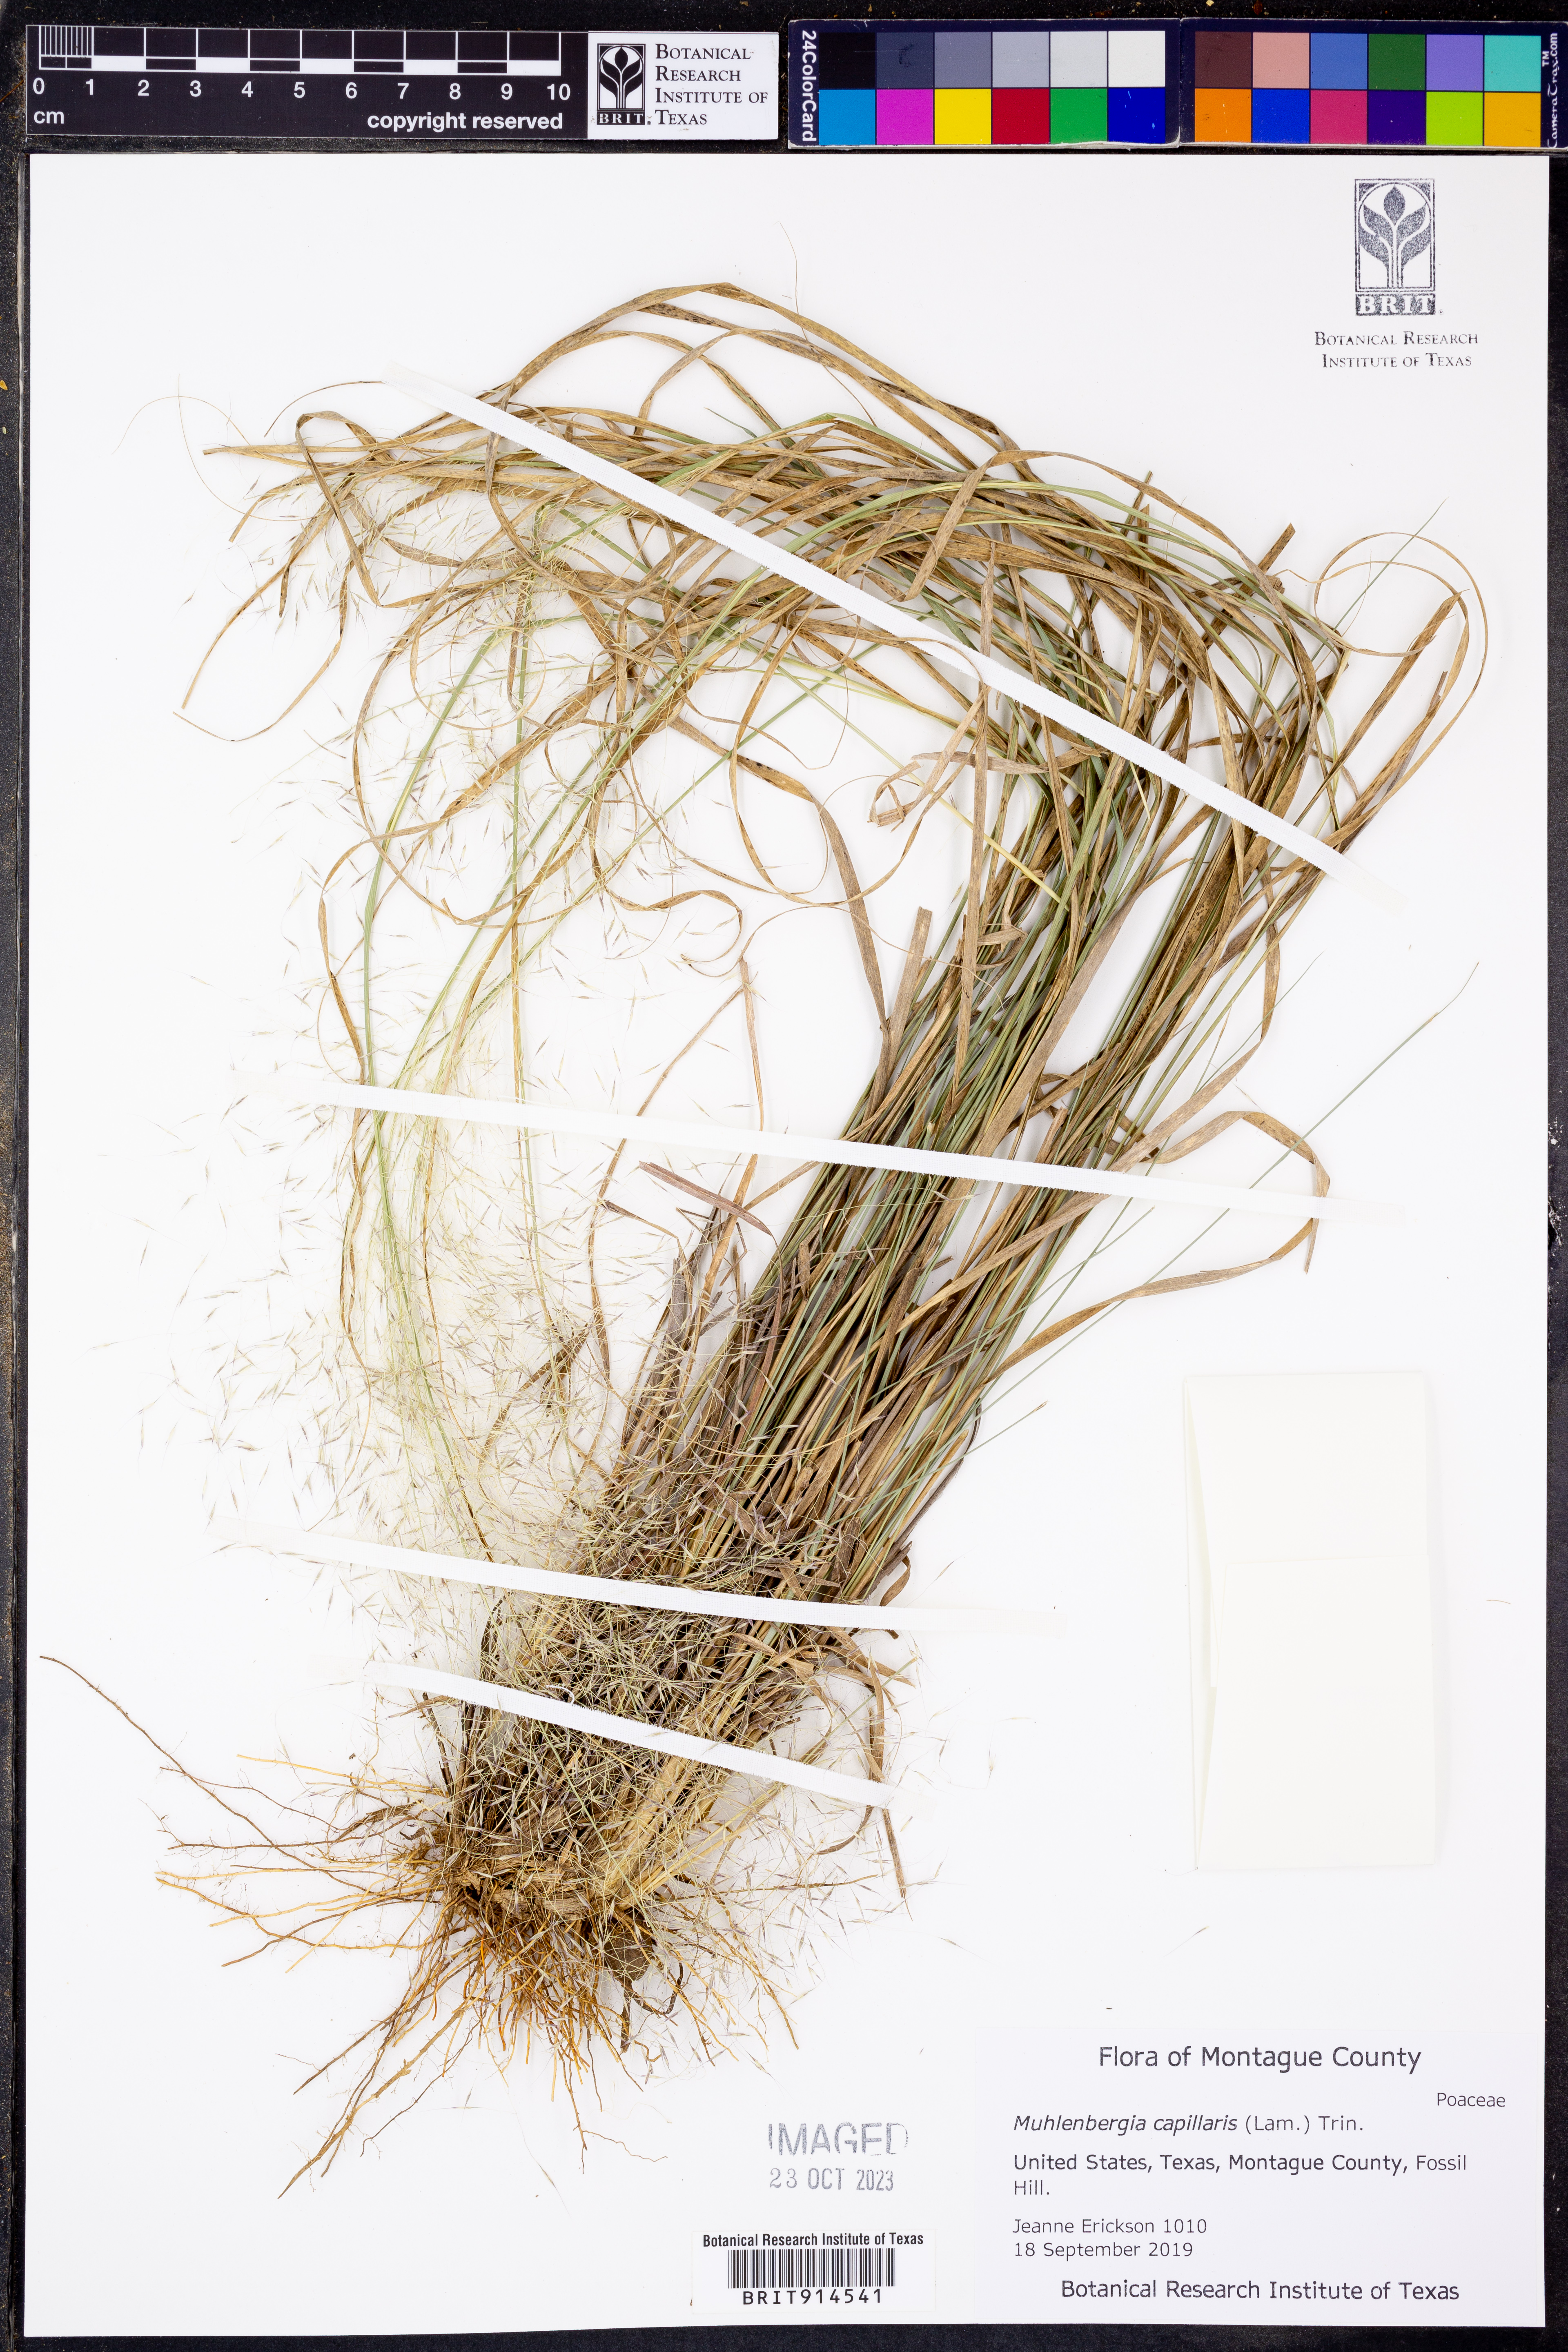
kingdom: Plantae
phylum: Tracheophyta
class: Liliopsida
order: Poales
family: Poaceae
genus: Muhlenbergia
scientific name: Muhlenbergia capillaris
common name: Purple grass
